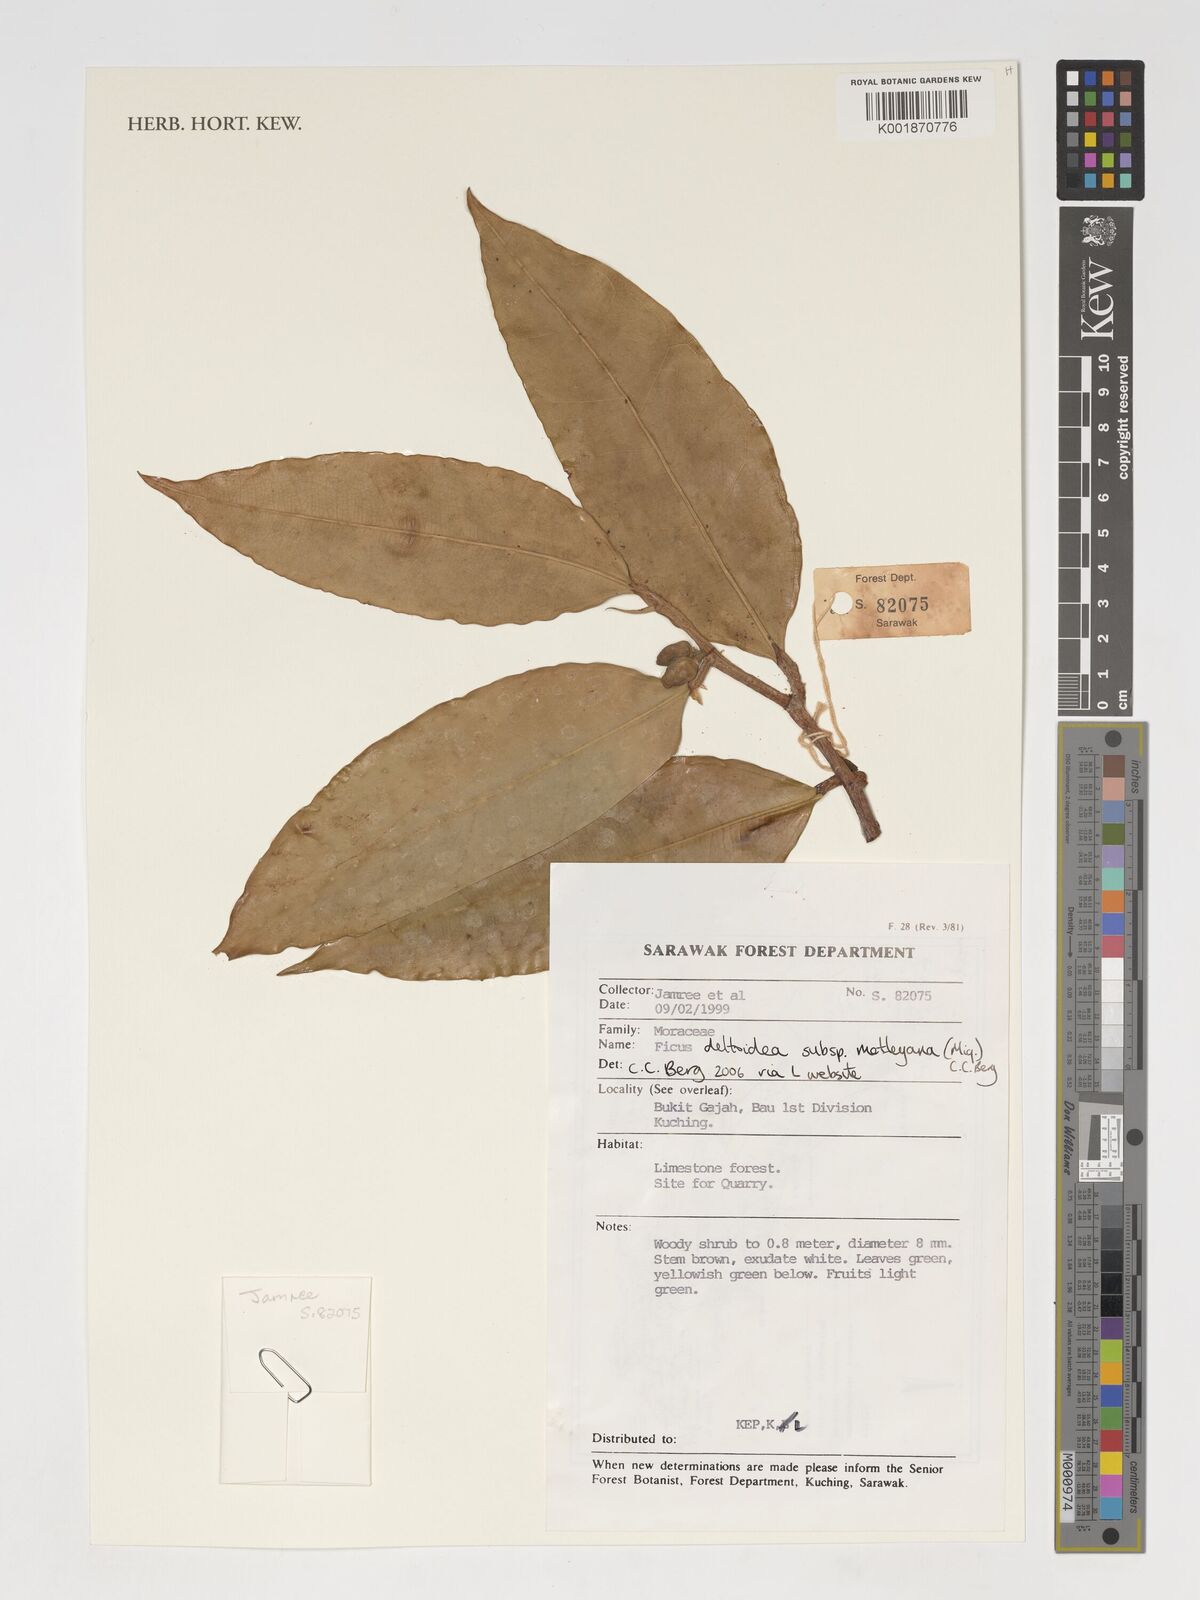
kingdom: Plantae
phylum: Tracheophyta
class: Magnoliopsida
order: Rosales
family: Moraceae
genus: Ficus
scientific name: Ficus deltoidea
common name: Mistletoe fig
